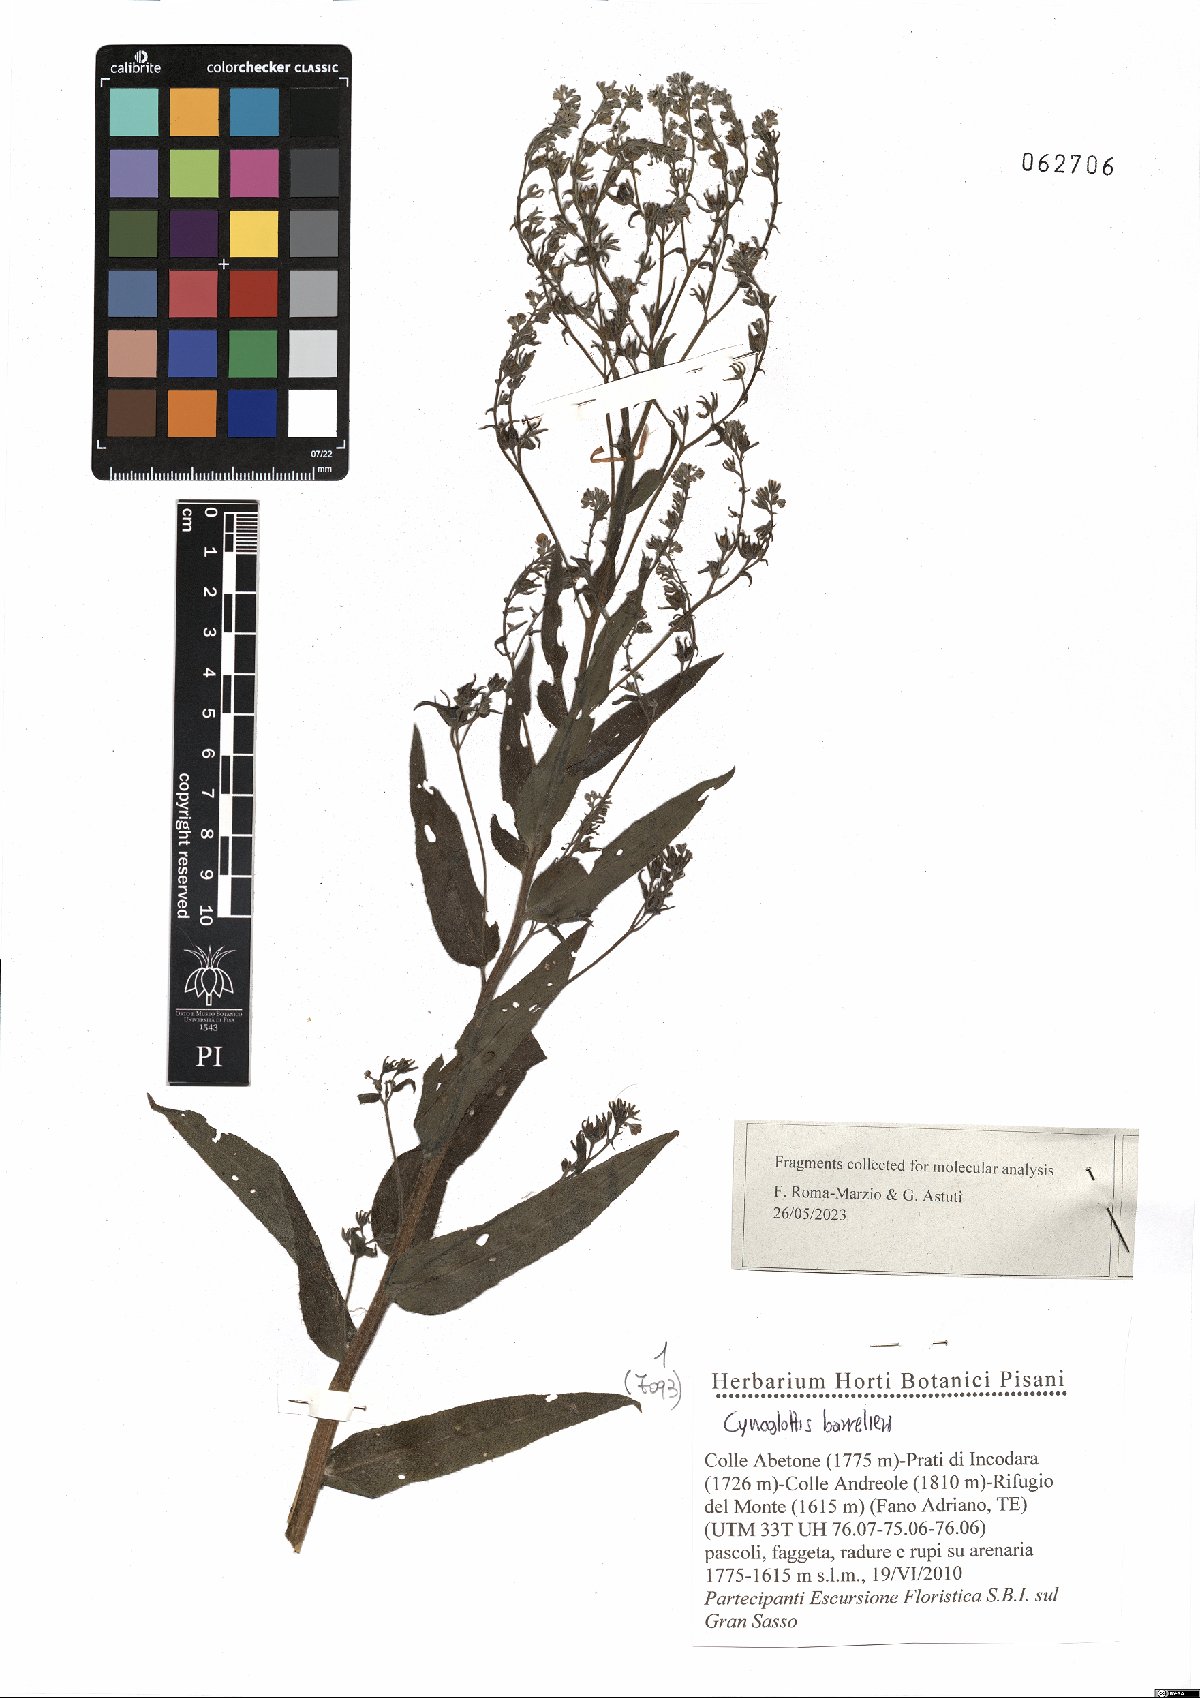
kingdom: Plantae
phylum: Tracheophyta
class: Magnoliopsida
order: Boraginales
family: Boraginaceae
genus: Cynoglottis
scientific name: Cynoglottis barrelieri
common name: False alkanet
